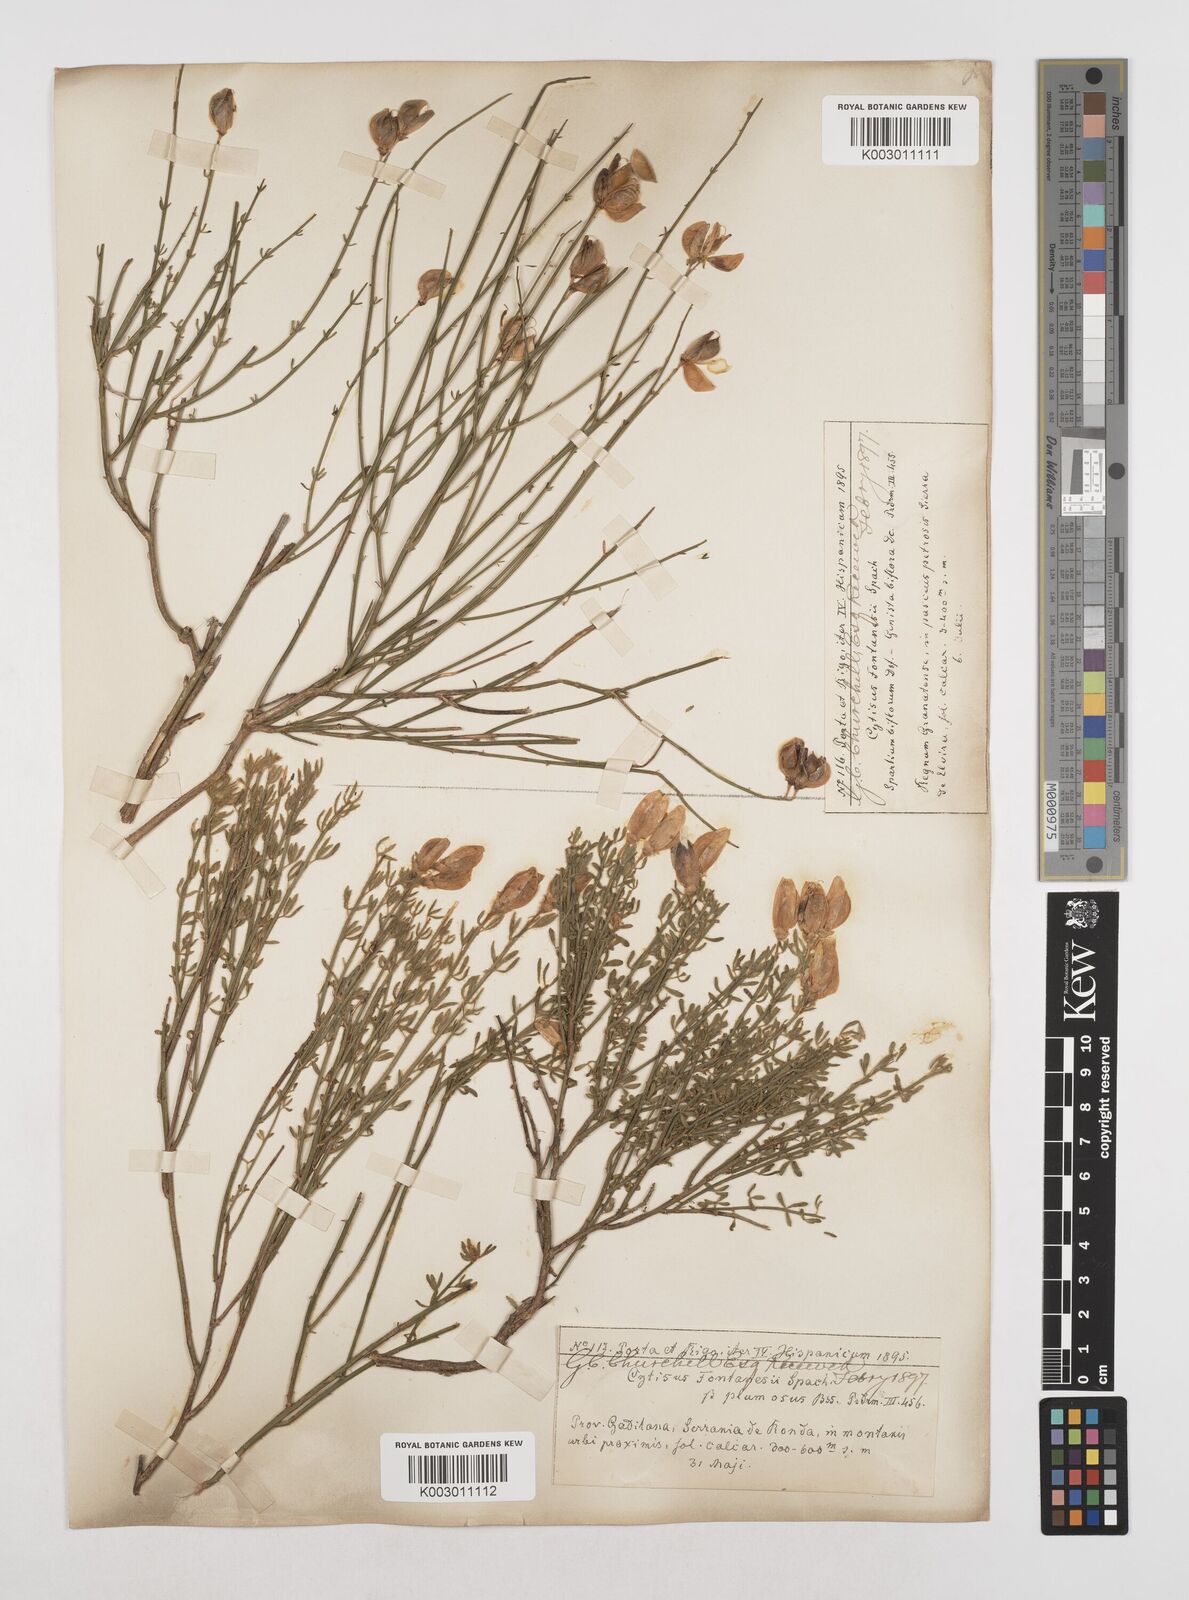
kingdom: Plantae
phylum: Tracheophyta
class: Magnoliopsida
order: Fabales
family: Fabaceae
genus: Cytisus
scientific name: Cytisus fontanesii
